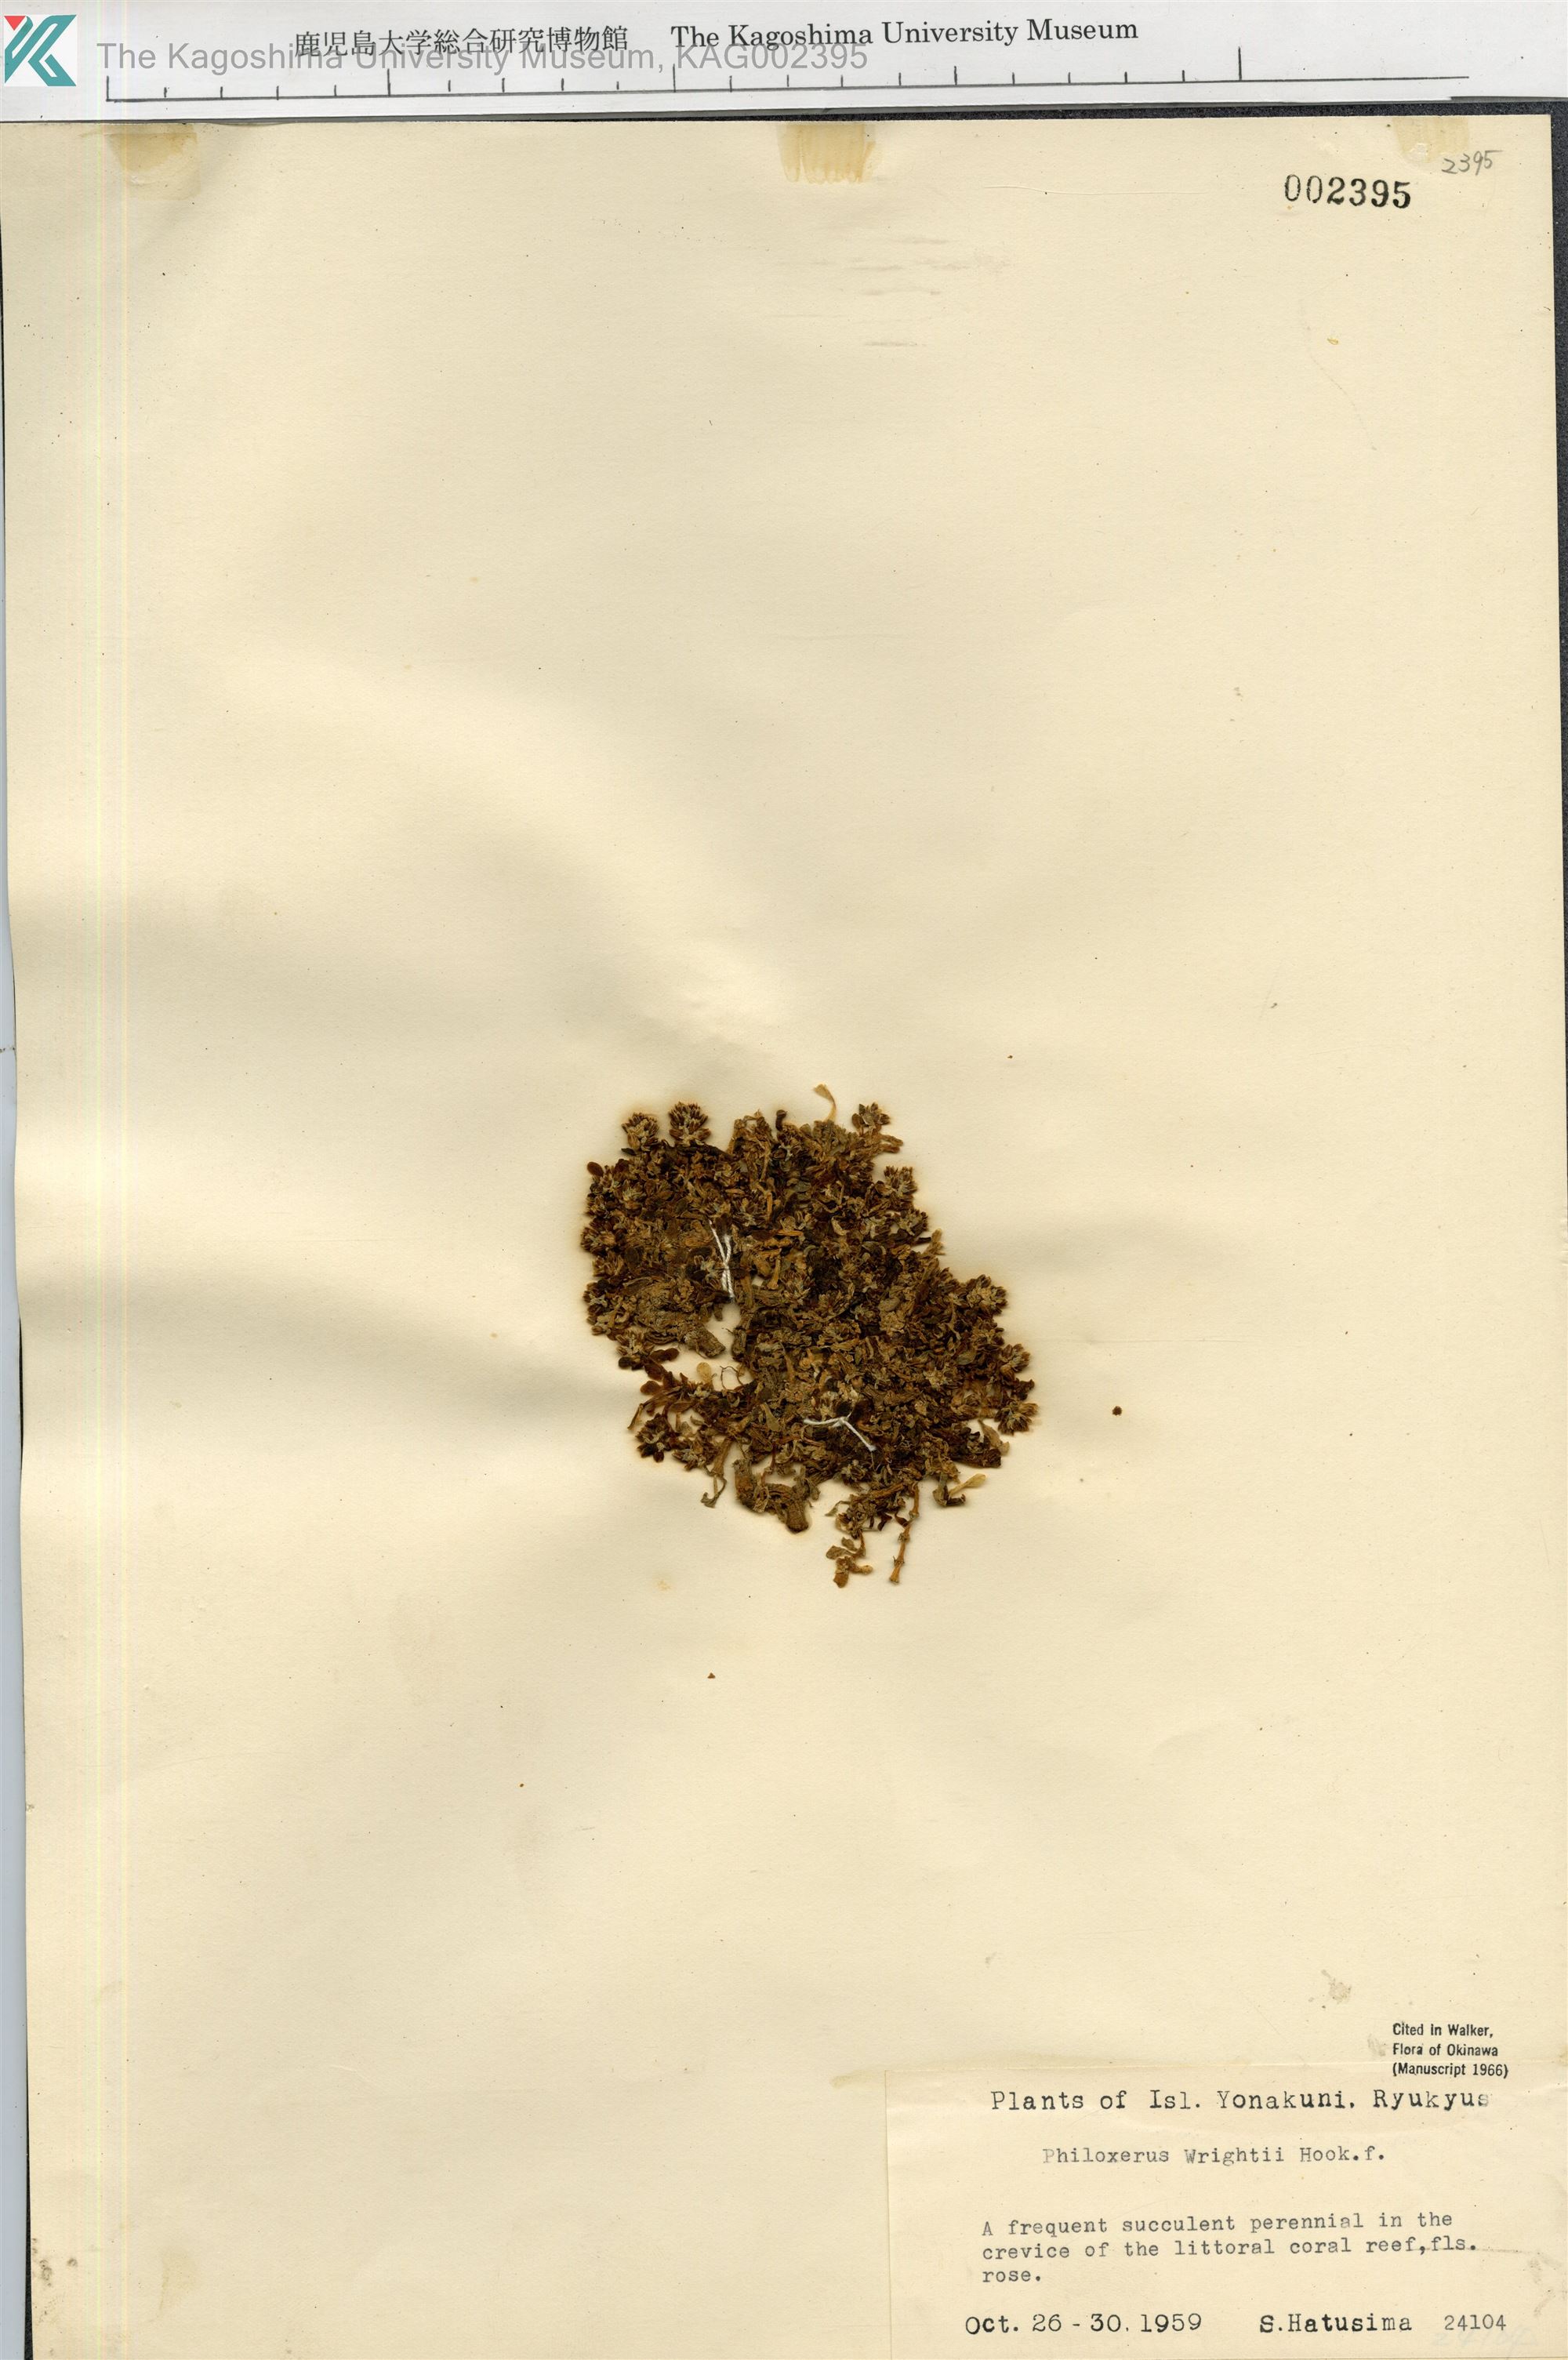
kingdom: Plantae
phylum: Tracheophyta
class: Magnoliopsida
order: Caryophyllales
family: Amaranthaceae
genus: Gomphrena
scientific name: Gomphrena wrightii
